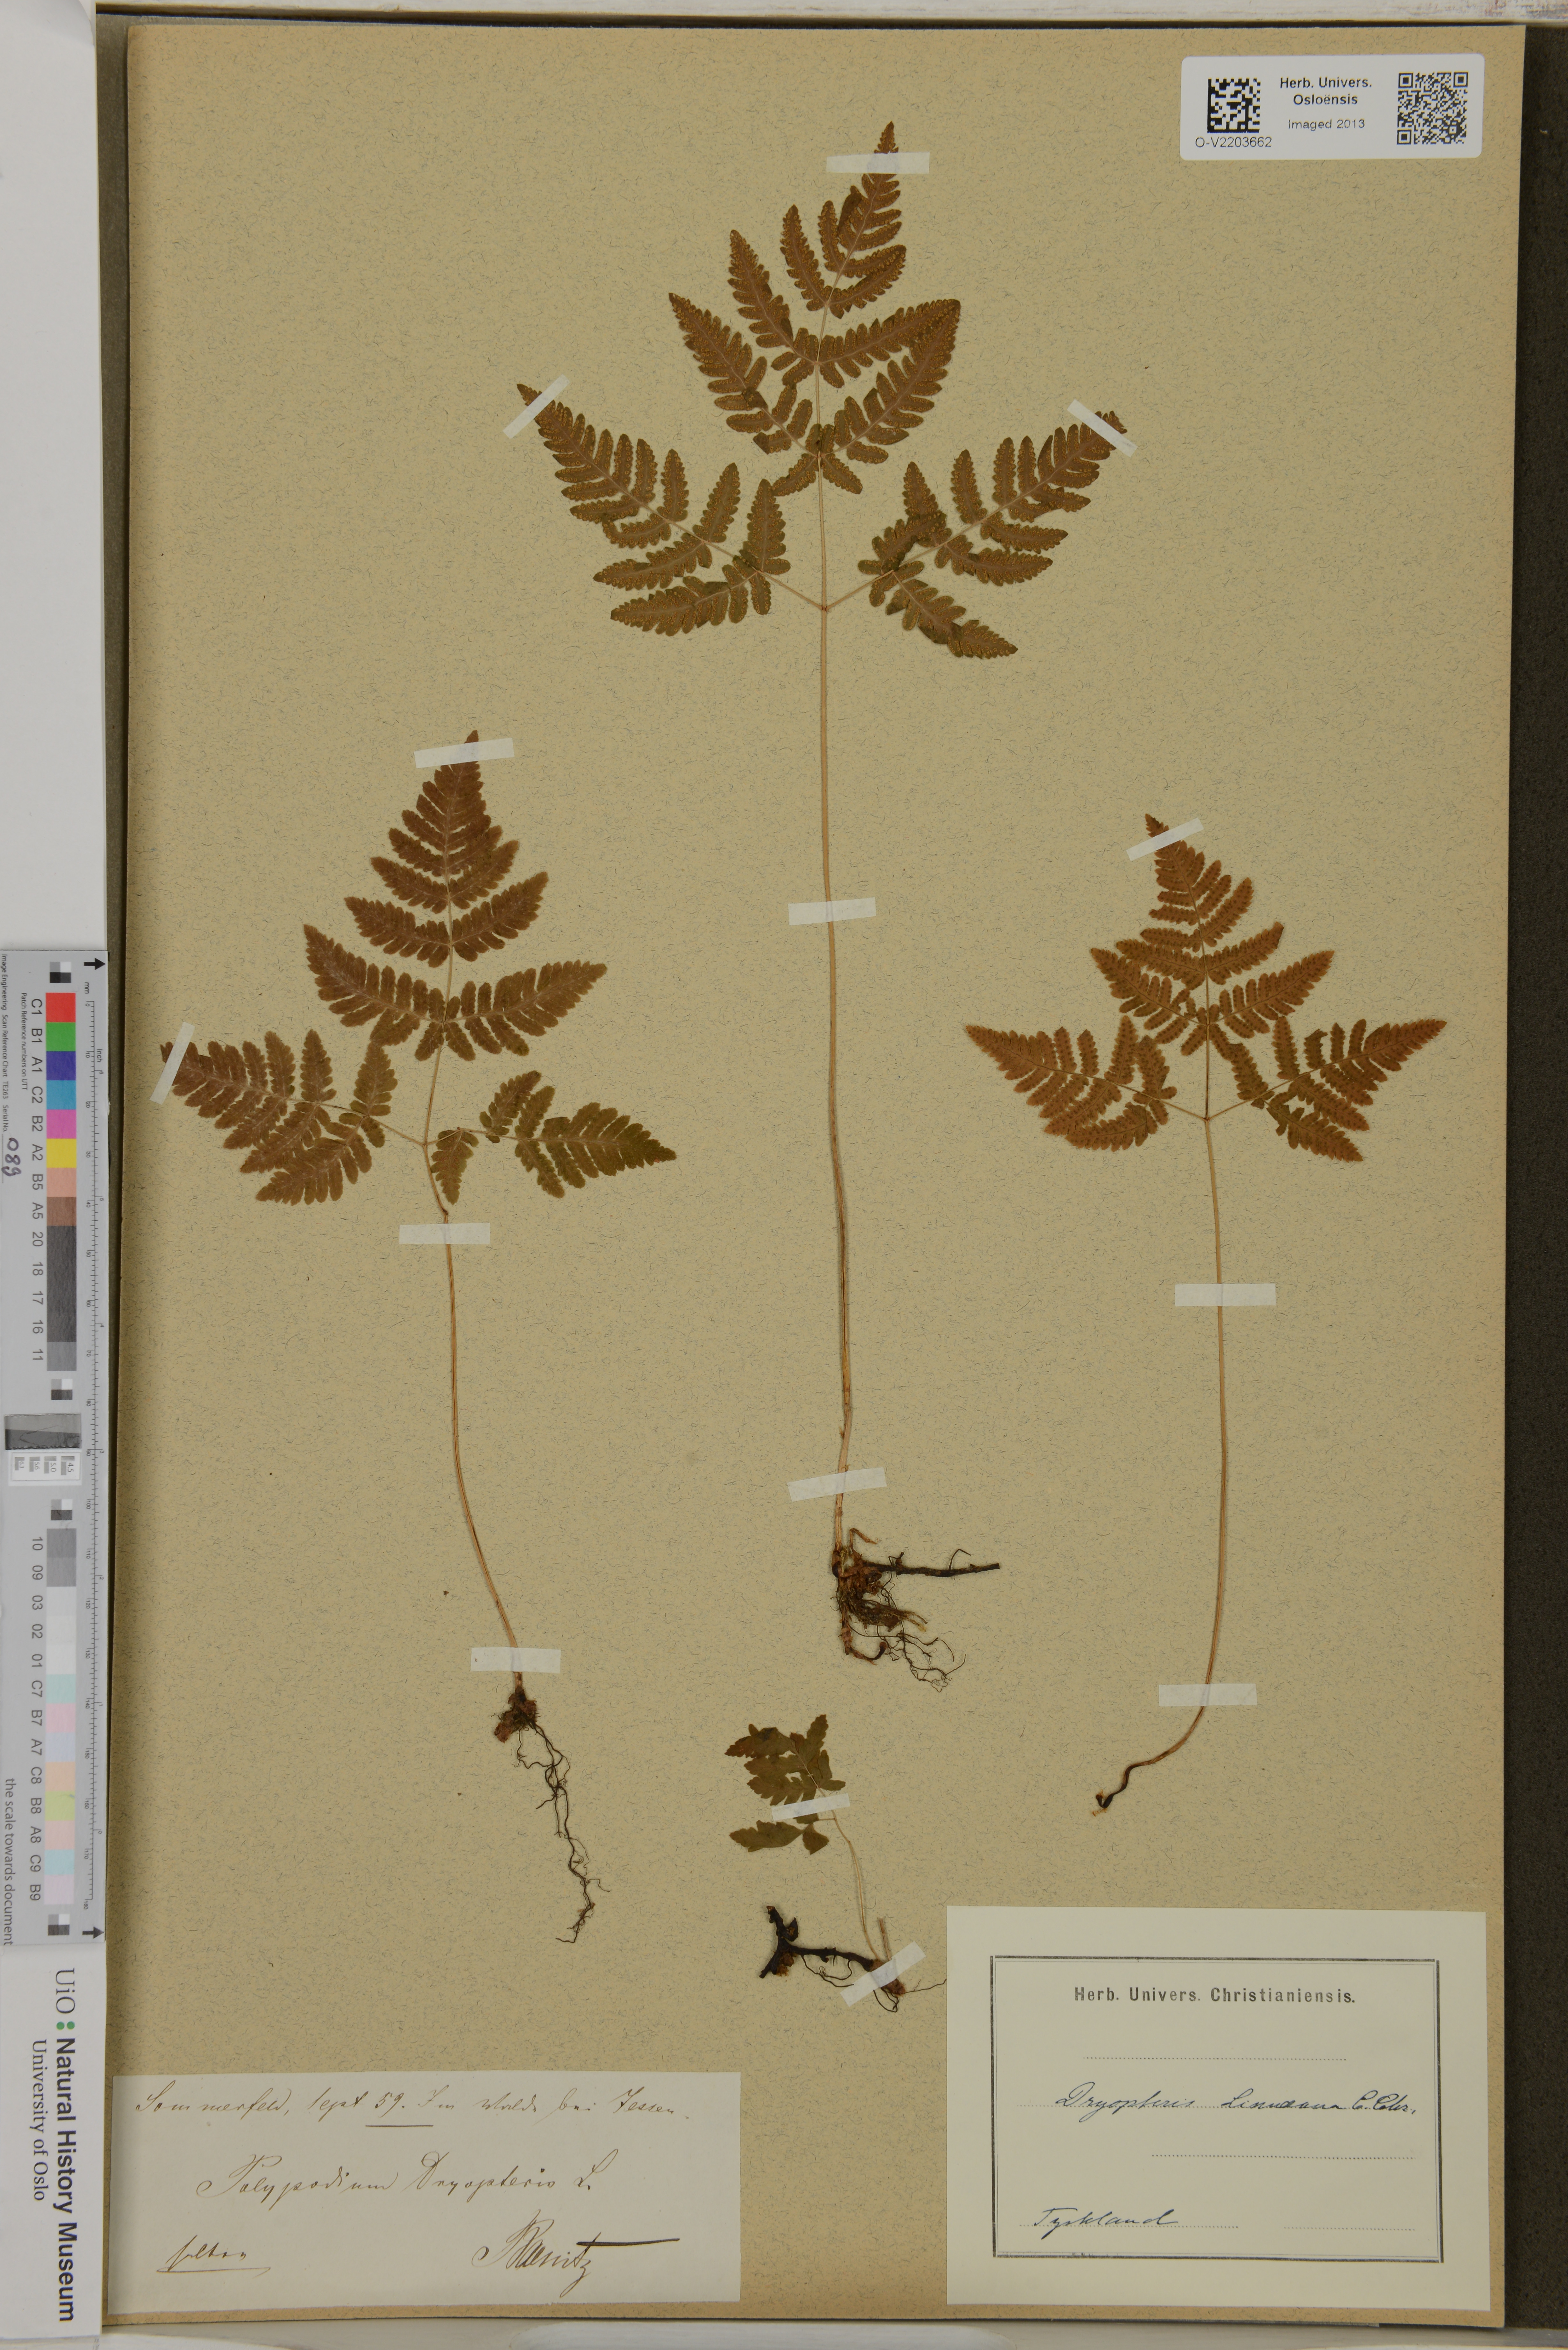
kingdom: Plantae
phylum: Tracheophyta
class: Polypodiopsida
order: Polypodiales
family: Cystopteridaceae
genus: Gymnocarpium
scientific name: Gymnocarpium dryopteris
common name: Oak fern
